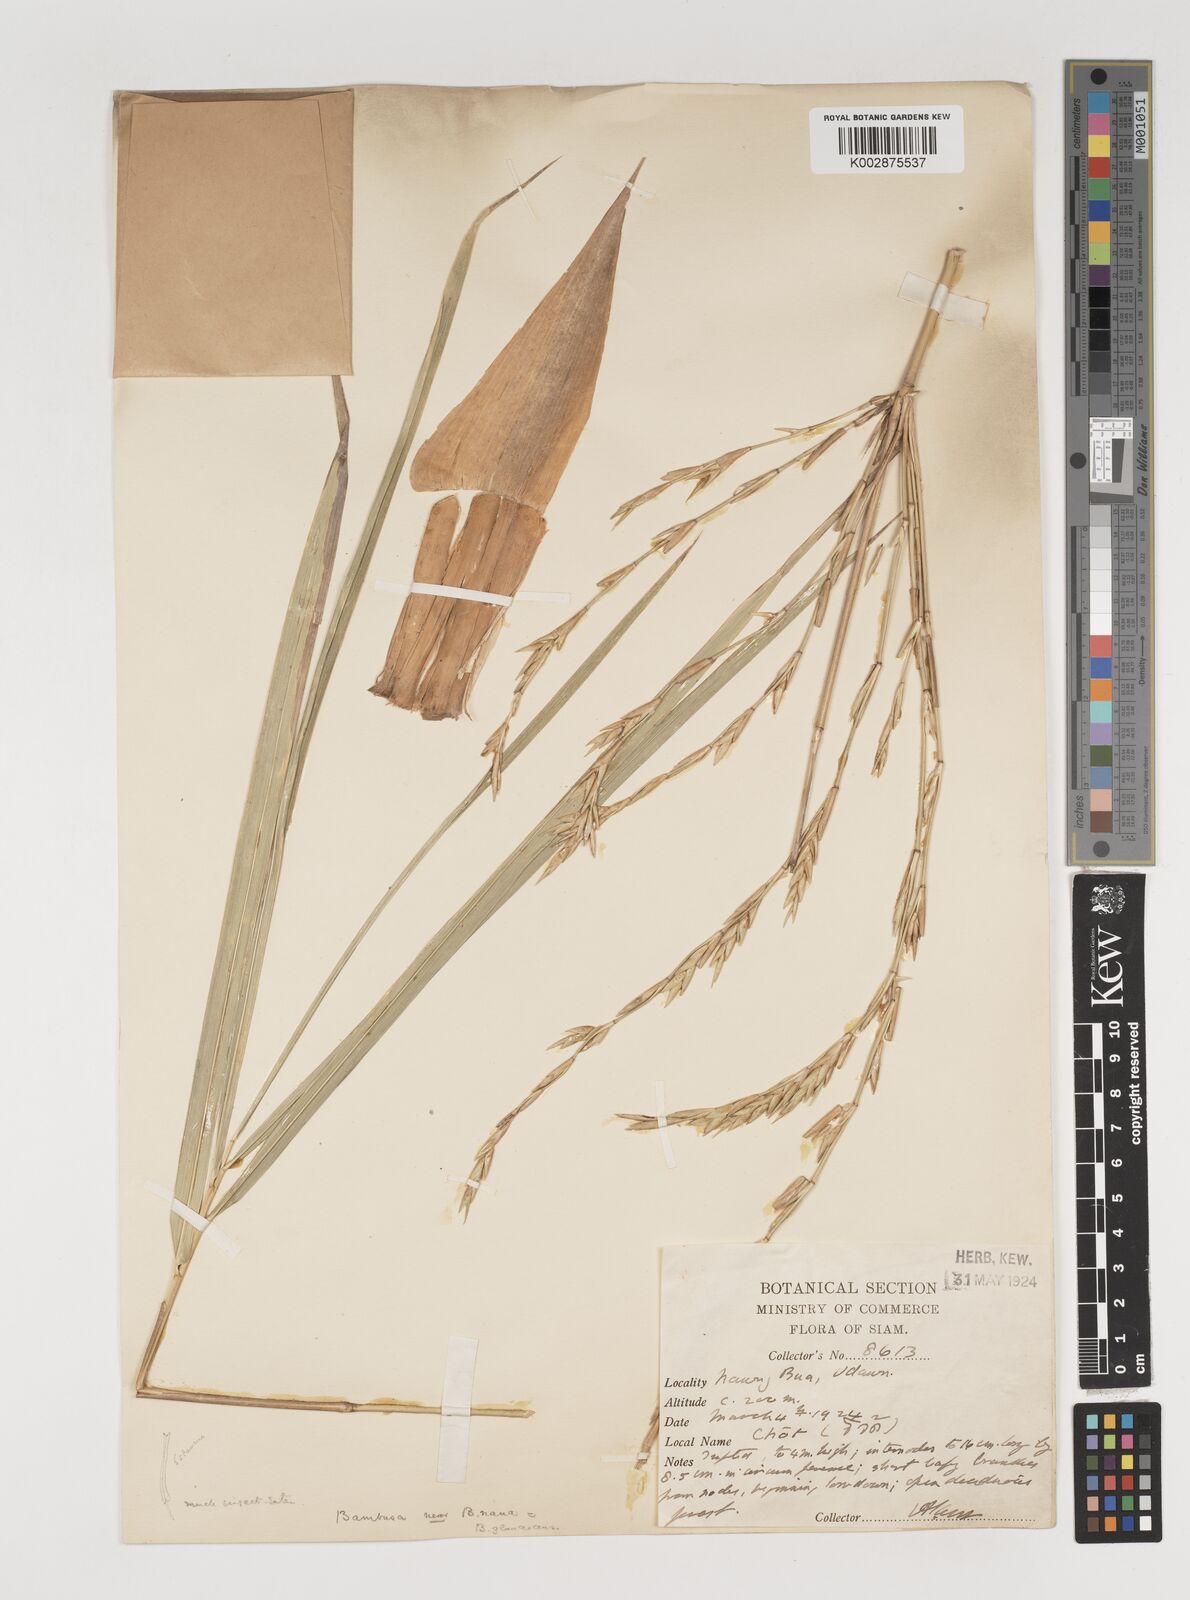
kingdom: Plantae
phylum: Tracheophyta
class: Liliopsida
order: Poales
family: Poaceae
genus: Vietnamosasa
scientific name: Vietnamosasa
